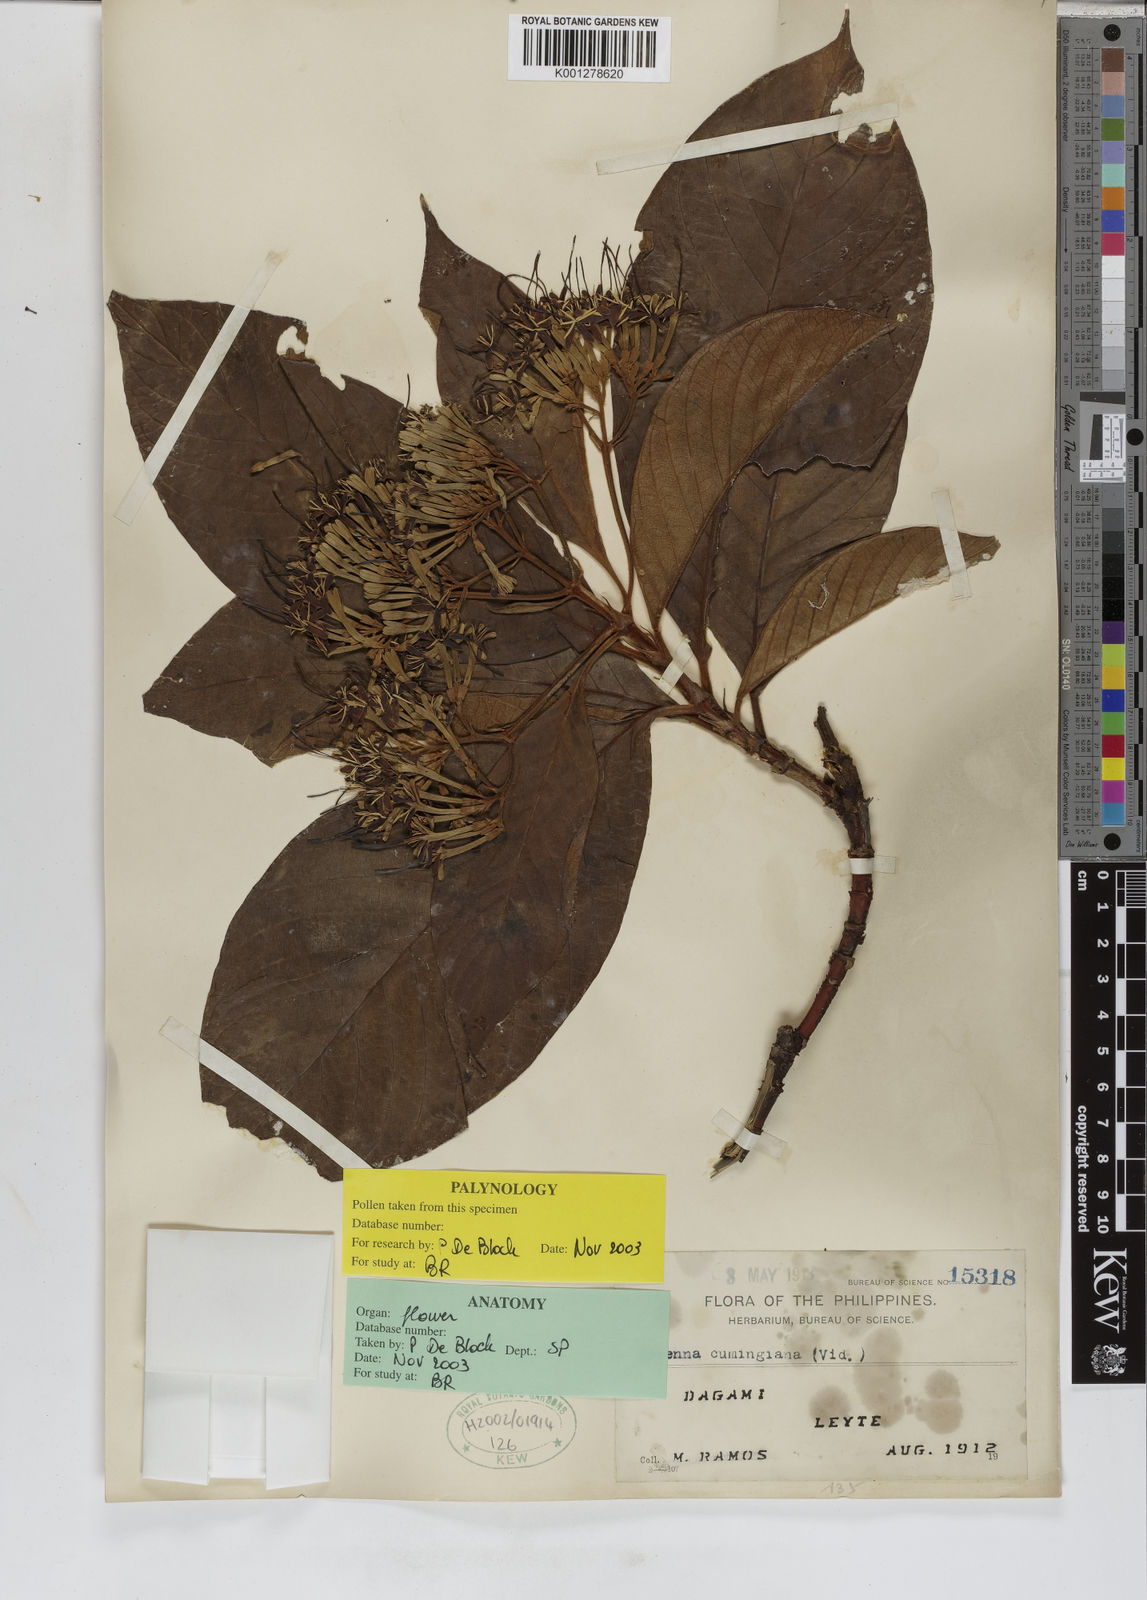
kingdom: Plantae
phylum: Tracheophyta
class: Magnoliopsida
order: Gentianales
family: Rubiaceae
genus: Tarenna
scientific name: Tarenna cumingiana
